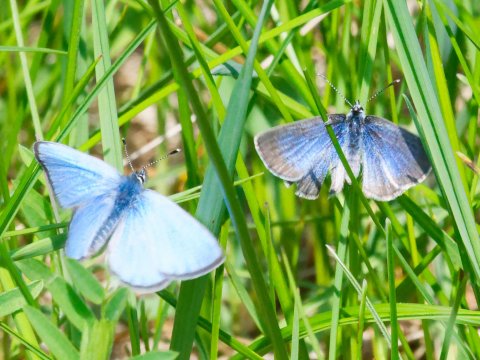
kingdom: Animalia
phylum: Arthropoda
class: Insecta
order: Lepidoptera
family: Lycaenidae
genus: Glaucopsyche
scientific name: Glaucopsyche lygdamus
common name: Silvery Blue
